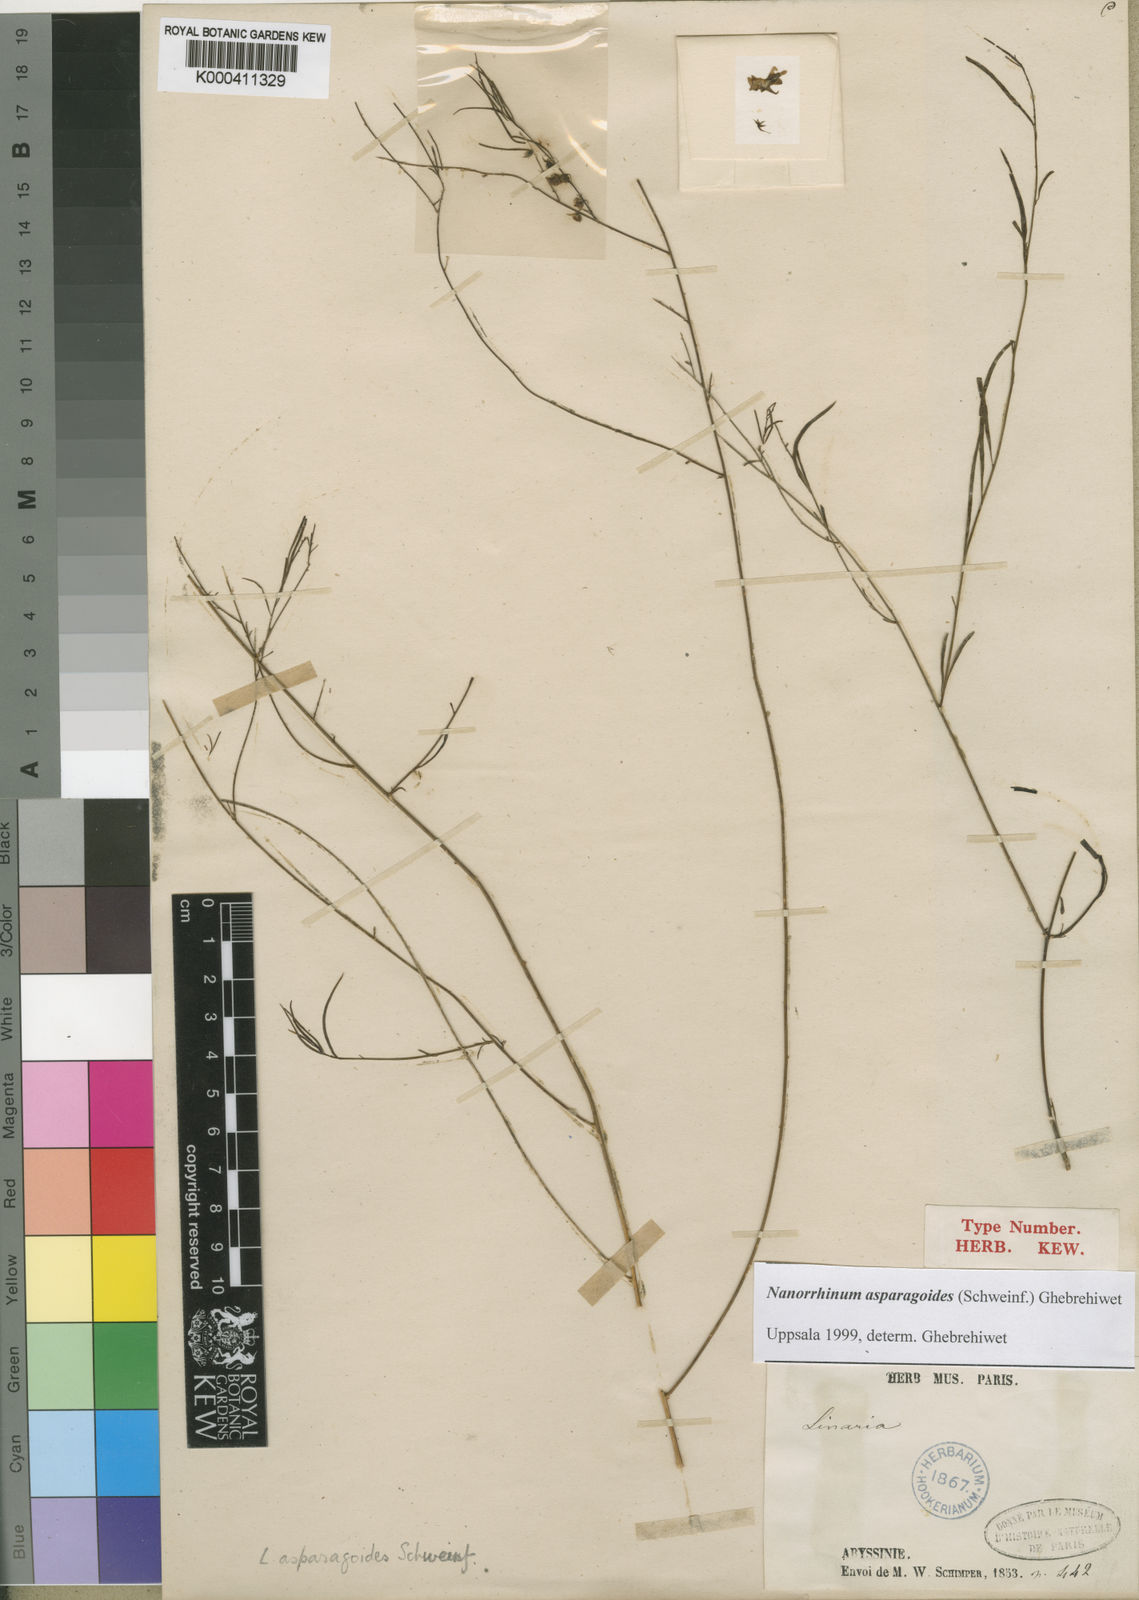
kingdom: Plantae
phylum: Tracheophyta
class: Magnoliopsida
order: Lamiales
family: Plantaginaceae
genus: Nanorrhinum
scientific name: Nanorrhinum asparagoides
